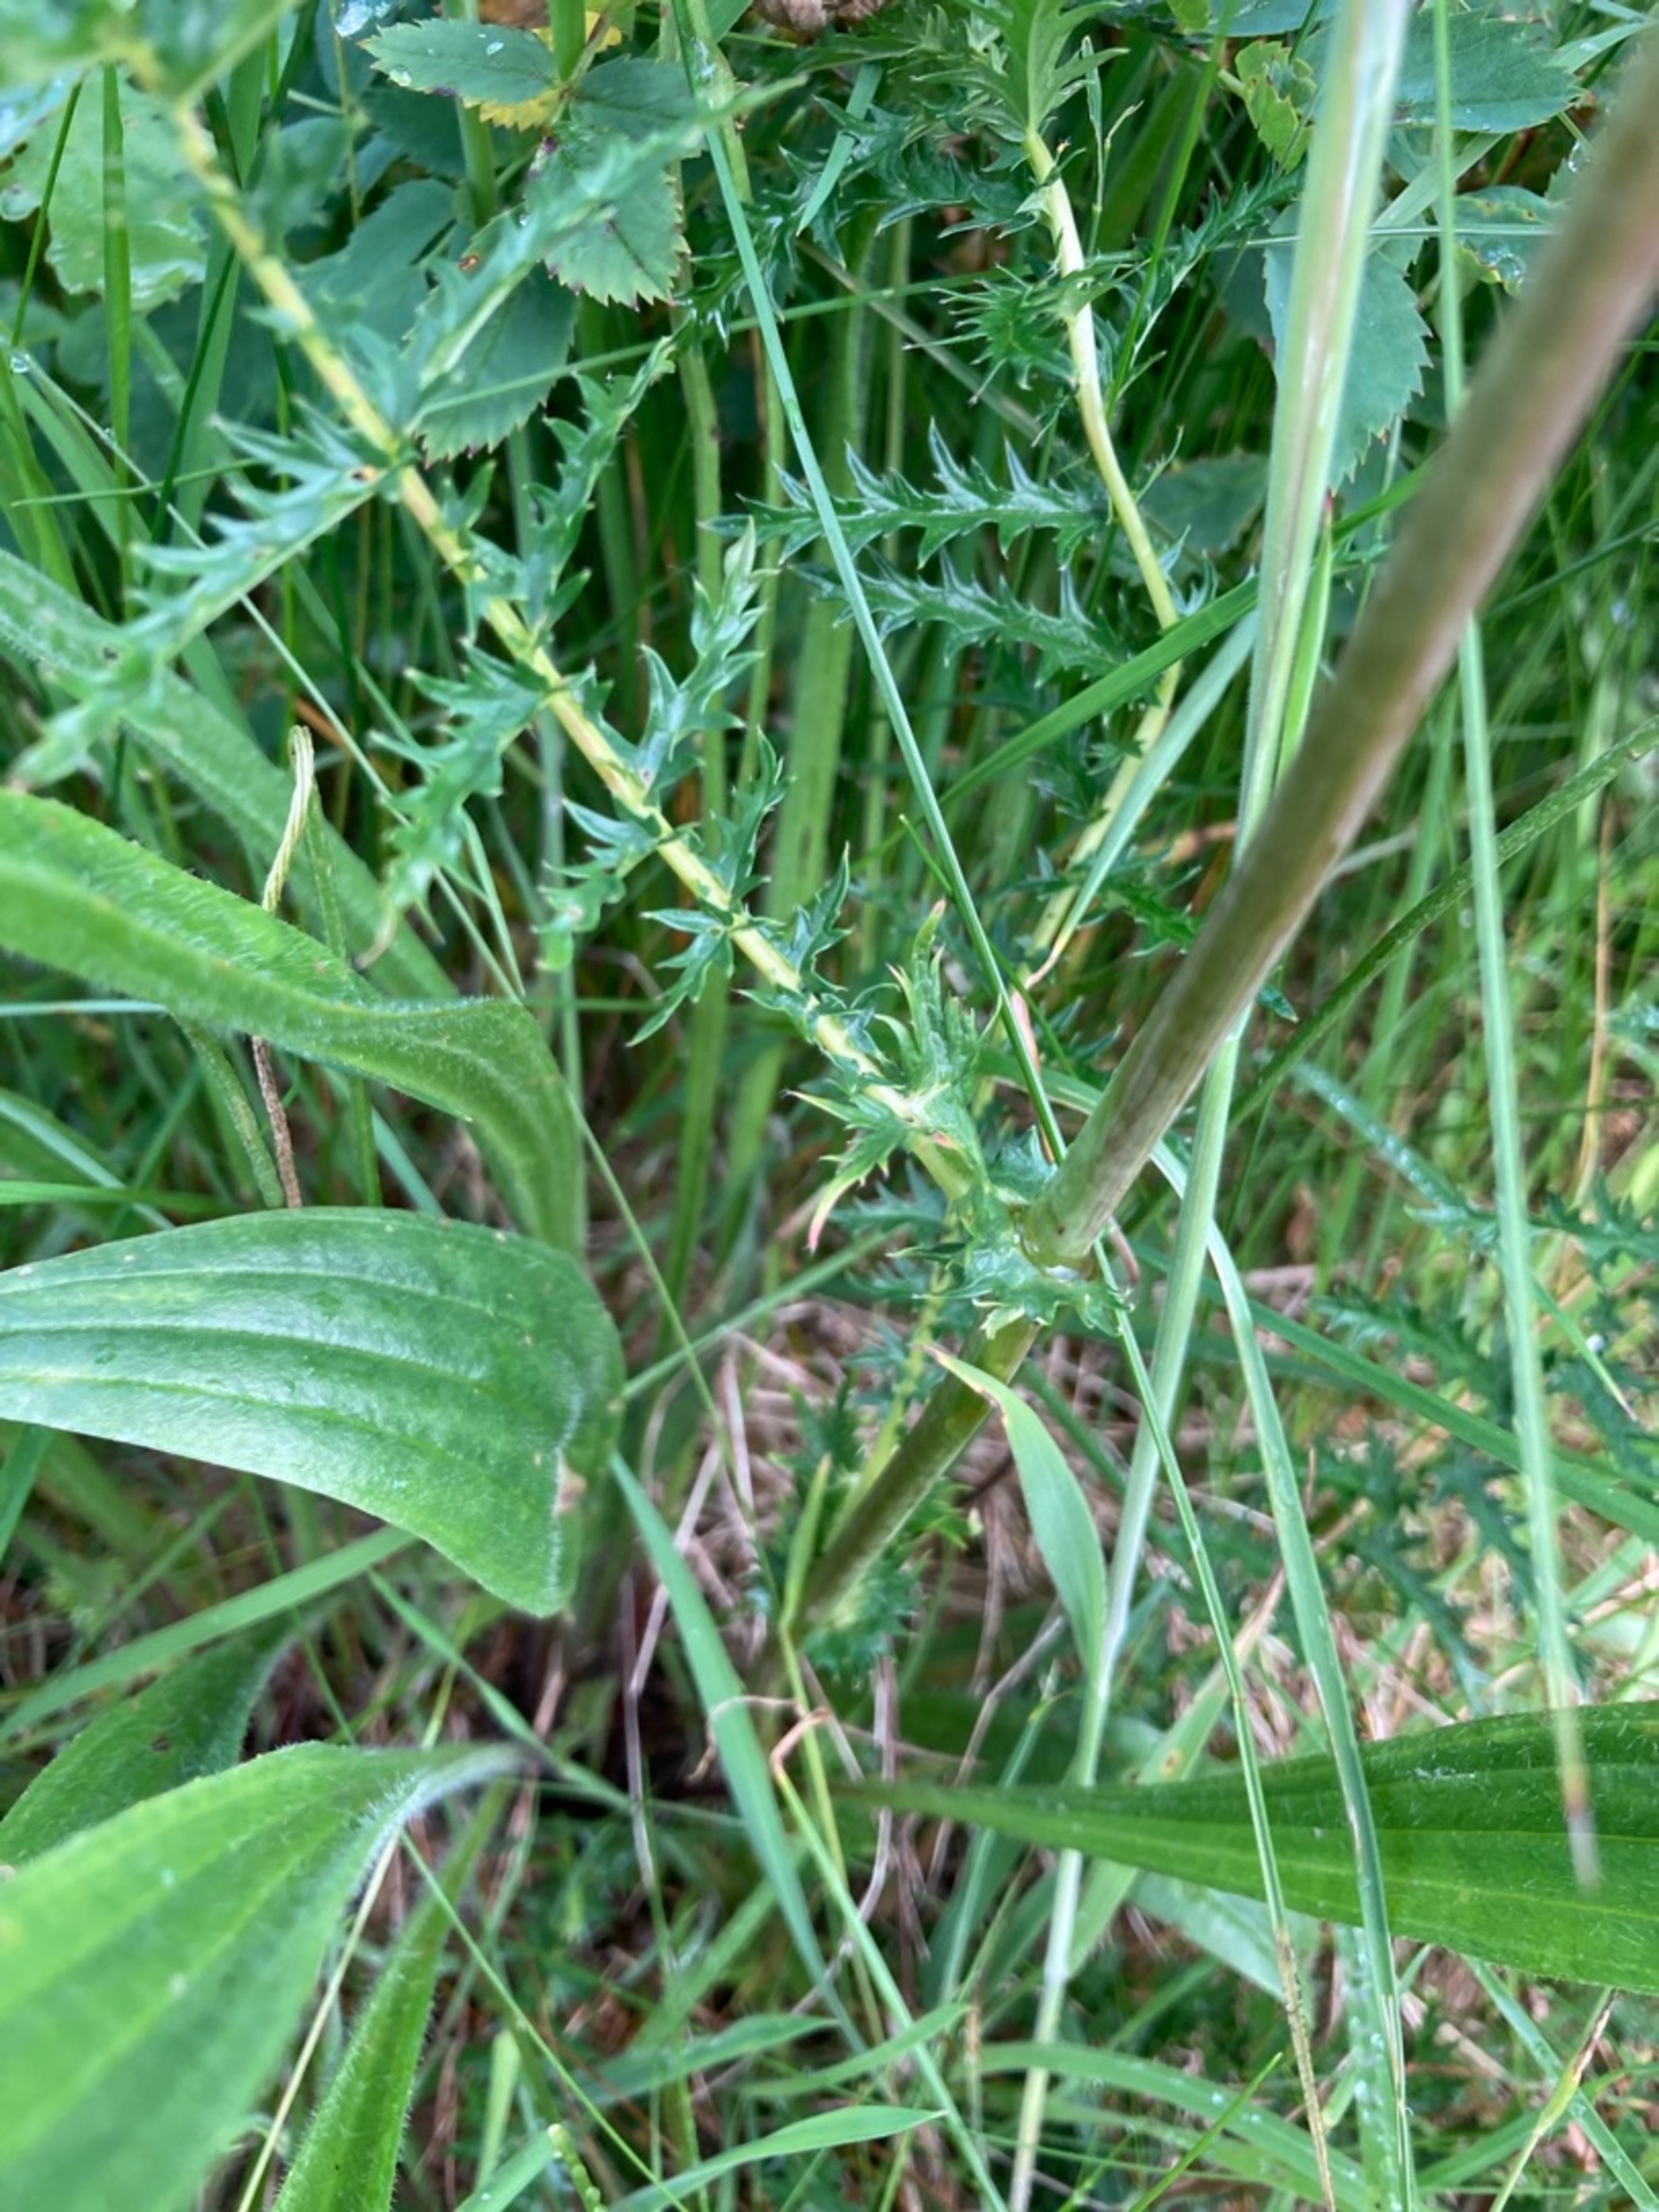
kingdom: Plantae
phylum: Tracheophyta
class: Magnoliopsida
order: Rosales
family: Rosaceae
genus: Filipendula
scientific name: Filipendula vulgaris
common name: Knoldet mjødurt
